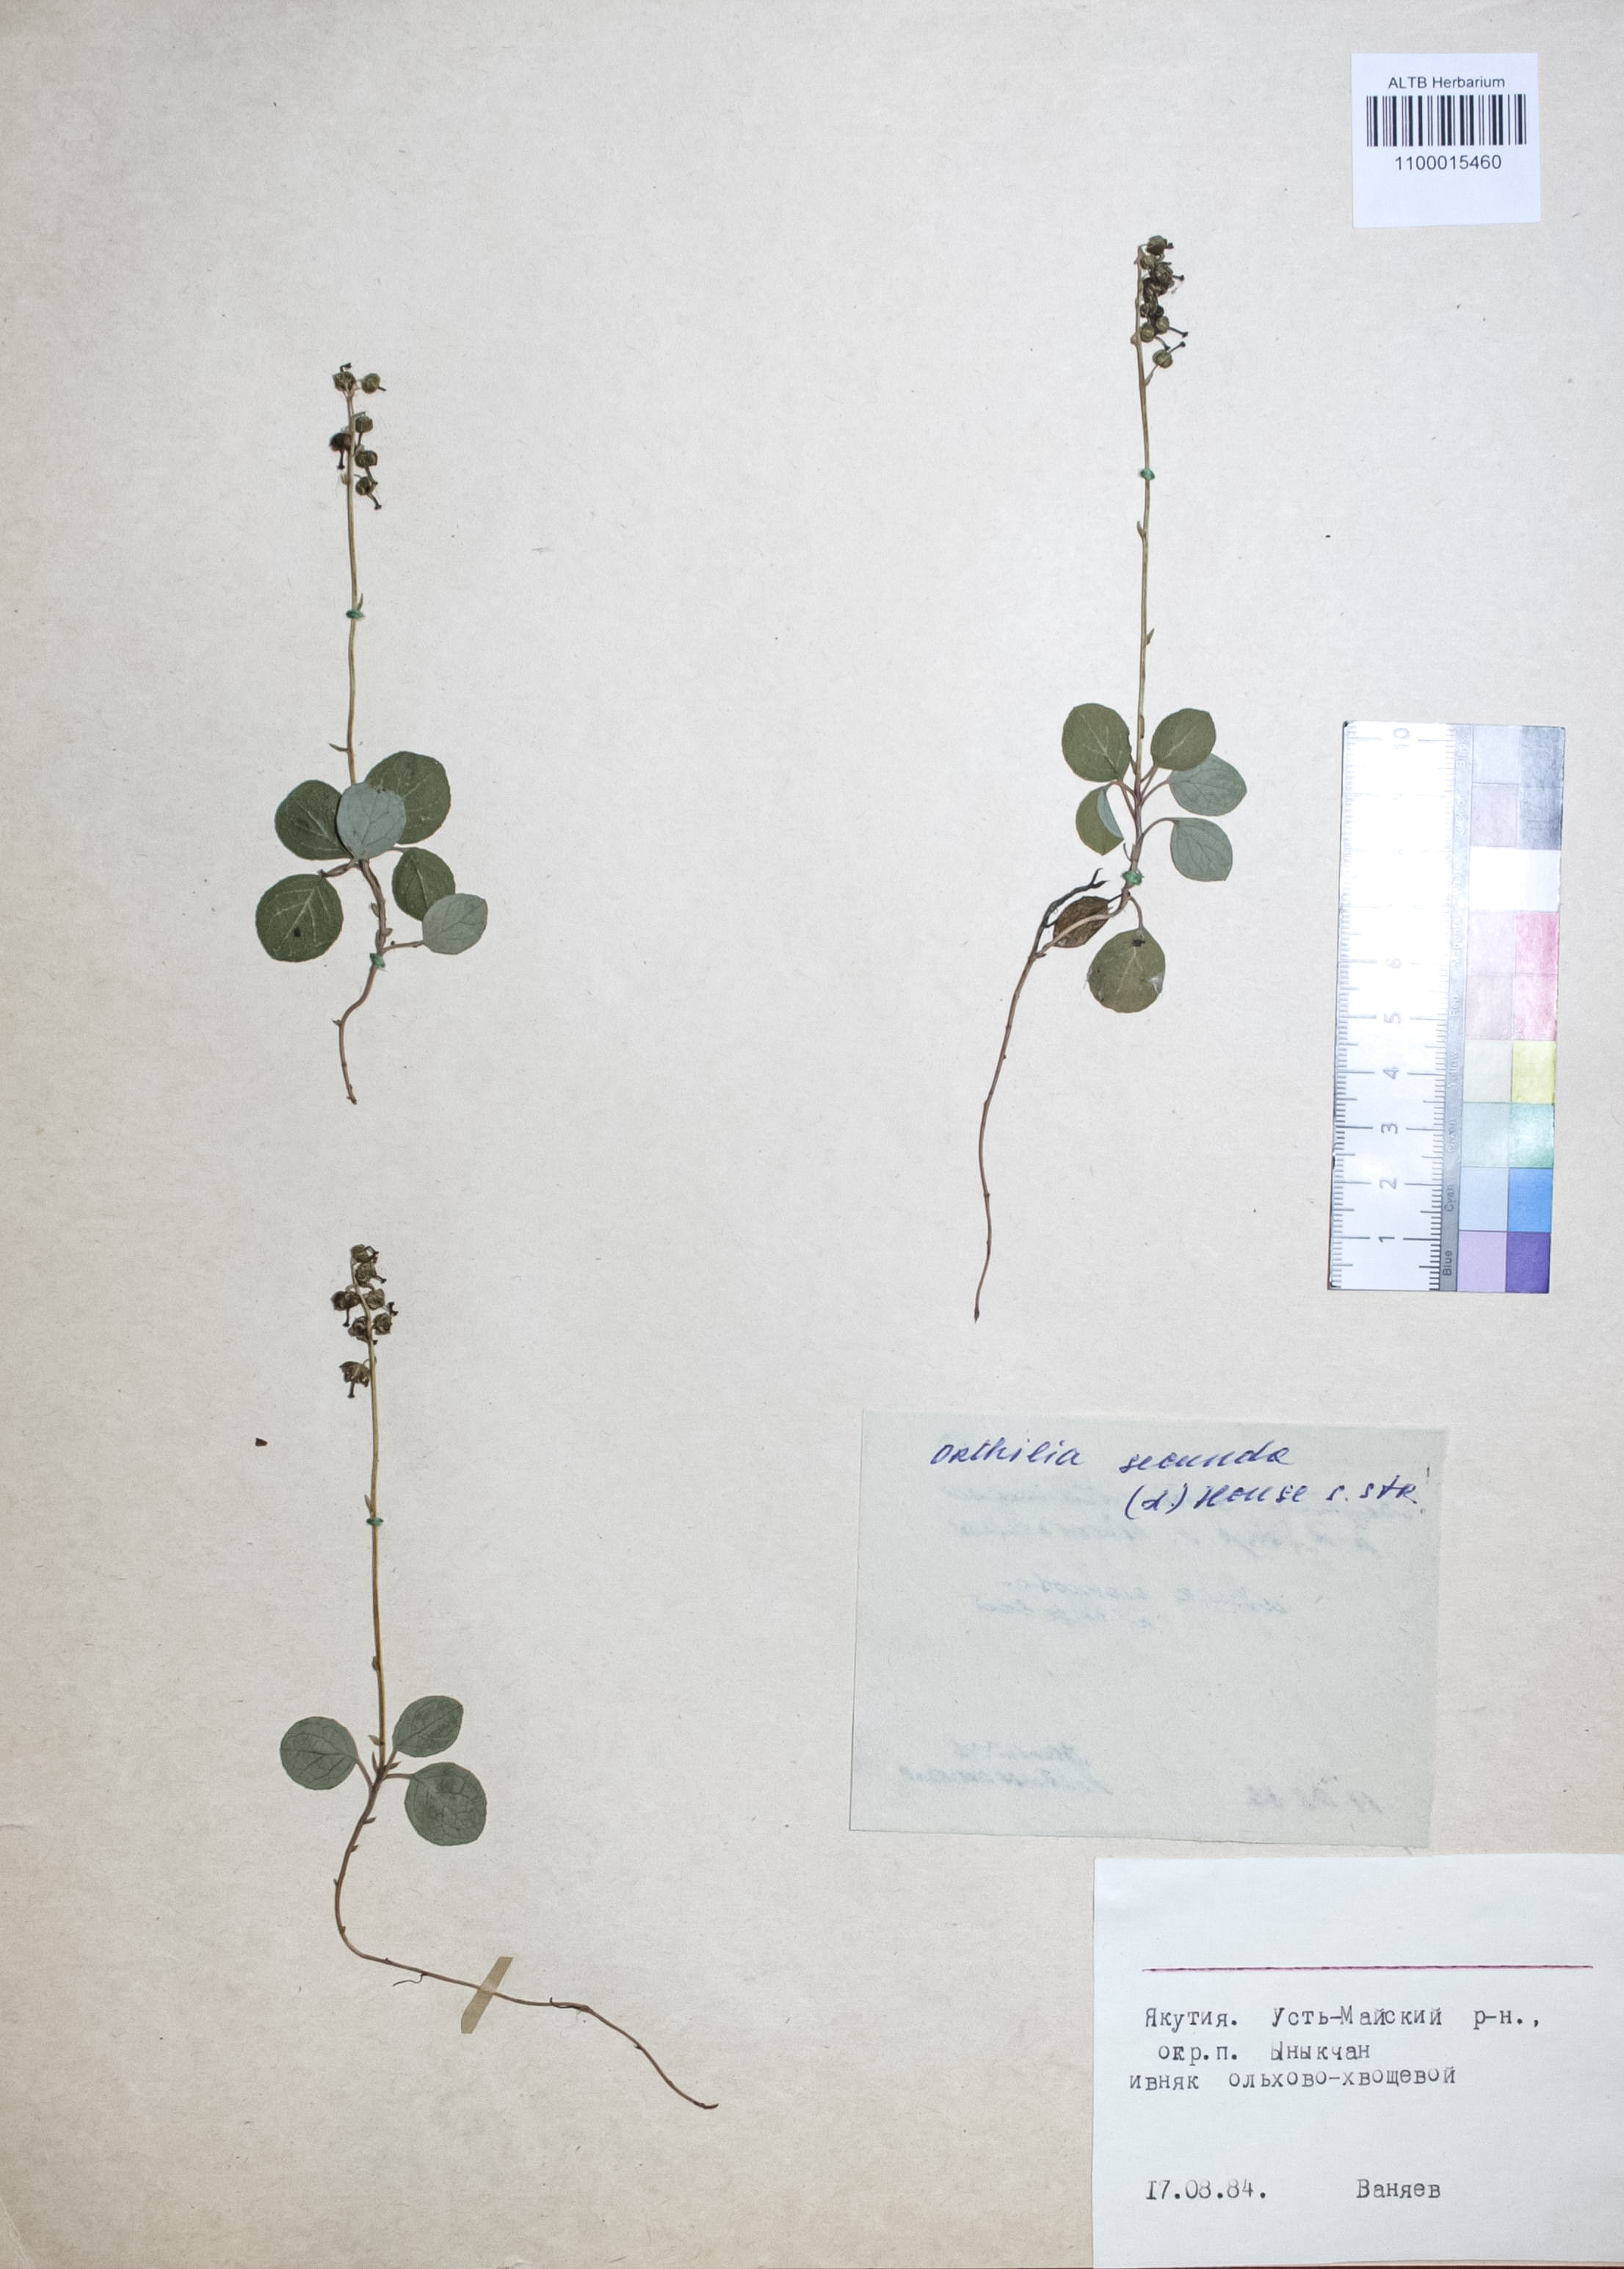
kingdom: Plantae
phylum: Tracheophyta
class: Magnoliopsida
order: Ericales
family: Ericaceae
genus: Orthilia
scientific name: Orthilia secunda
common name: One-sided orthilia
